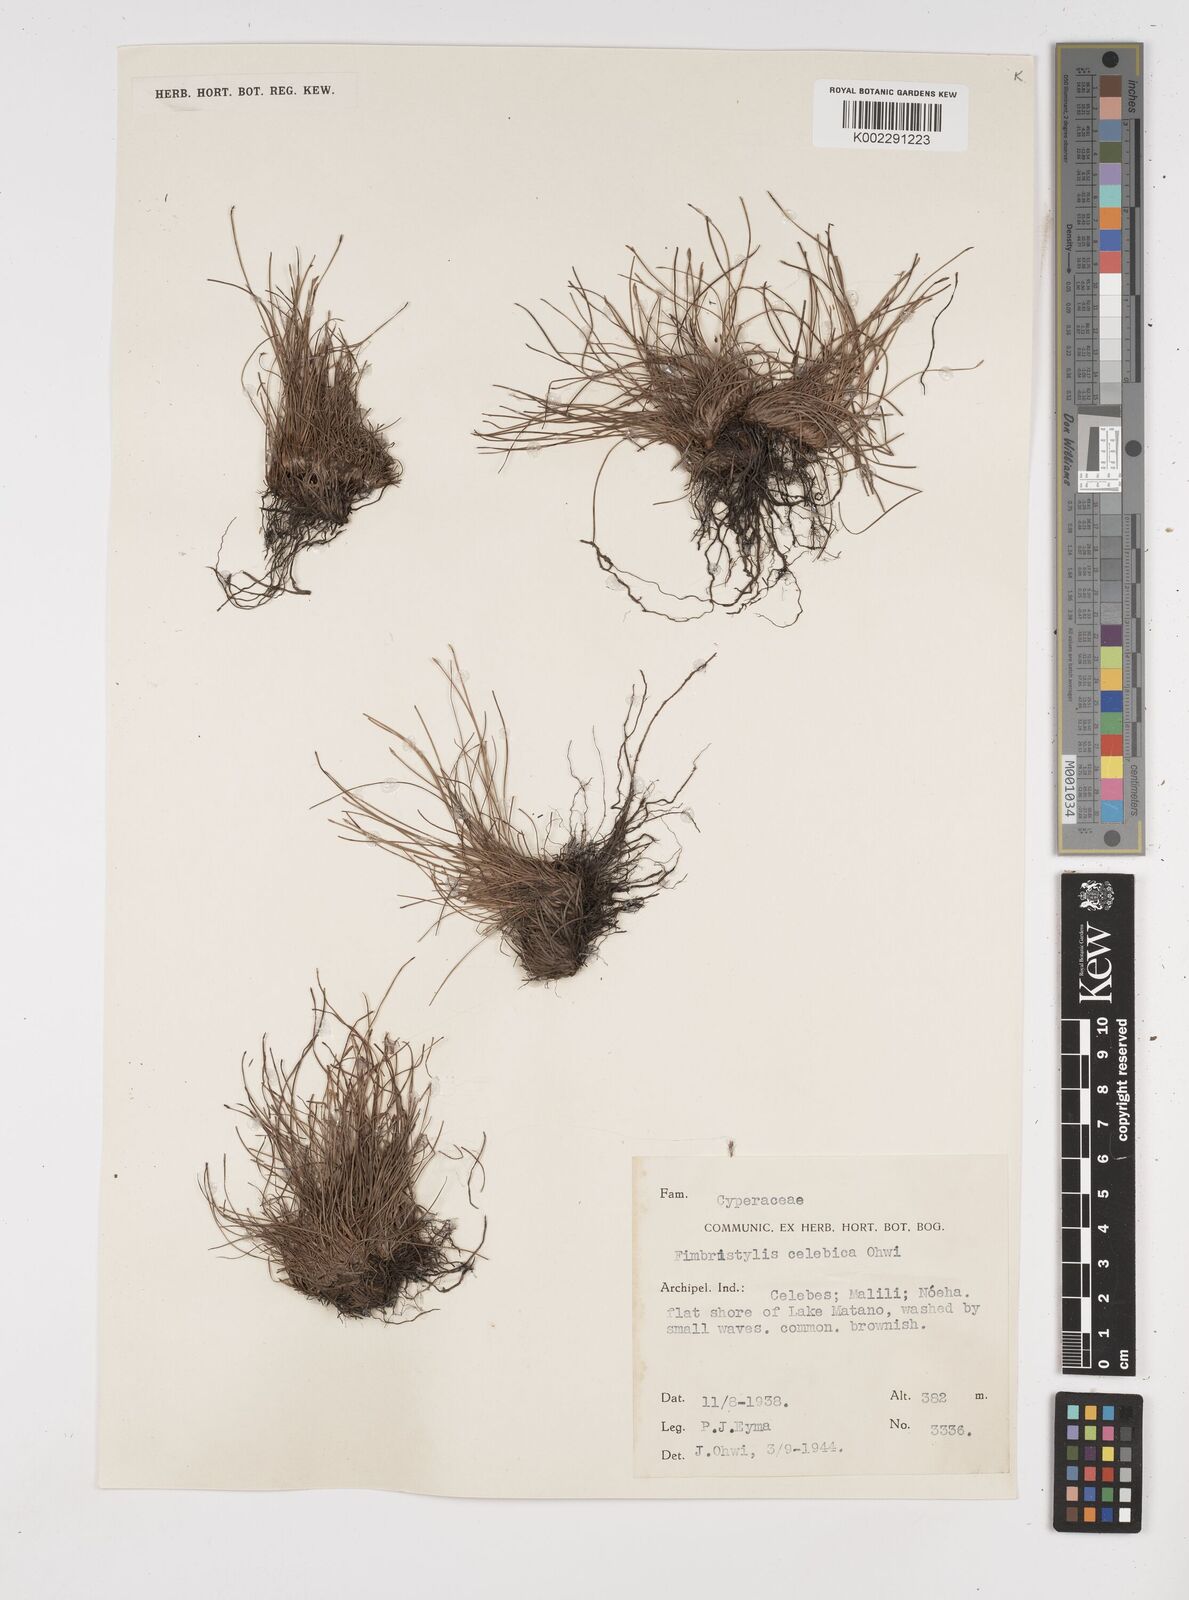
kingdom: Plantae
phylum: Tracheophyta
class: Liliopsida
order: Poales
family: Cyperaceae
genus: Fimbristylis
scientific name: Fimbristylis celebica
